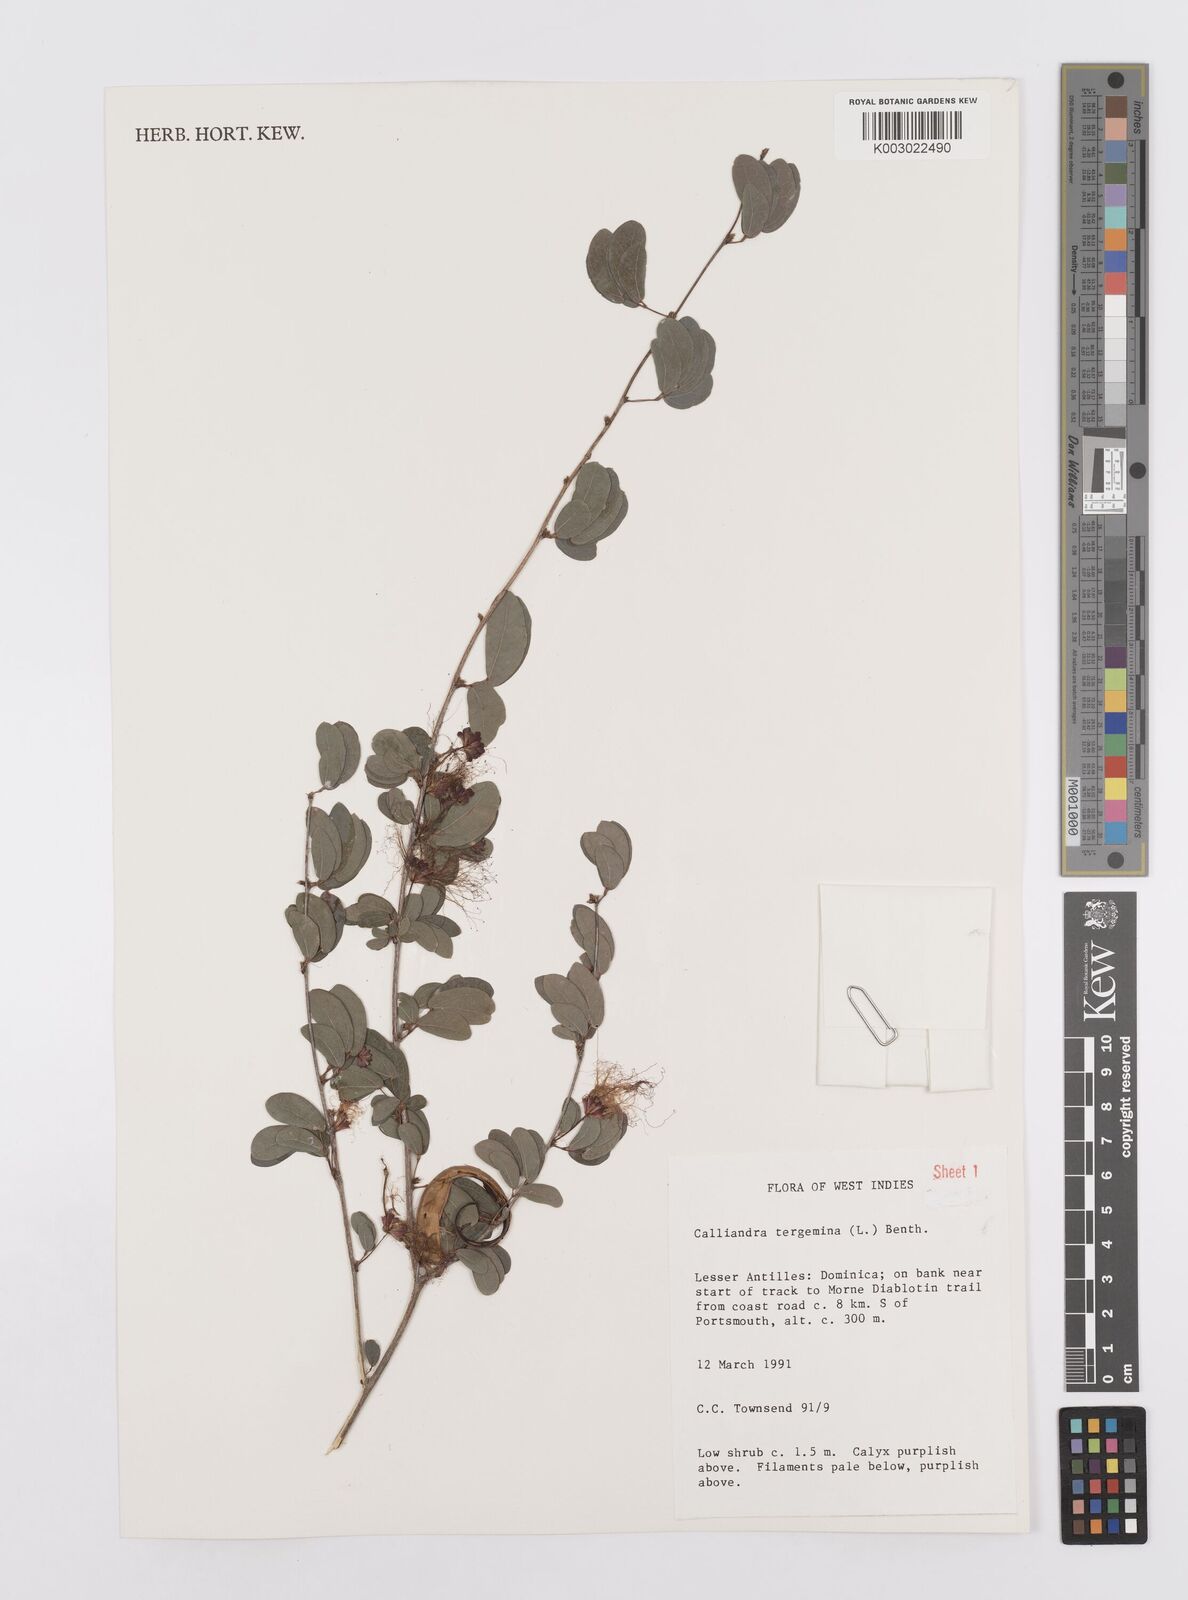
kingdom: Plantae
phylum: Tracheophyta
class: Magnoliopsida
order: Fabales
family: Fabaceae
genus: Calliandra
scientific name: Calliandra tergemina
